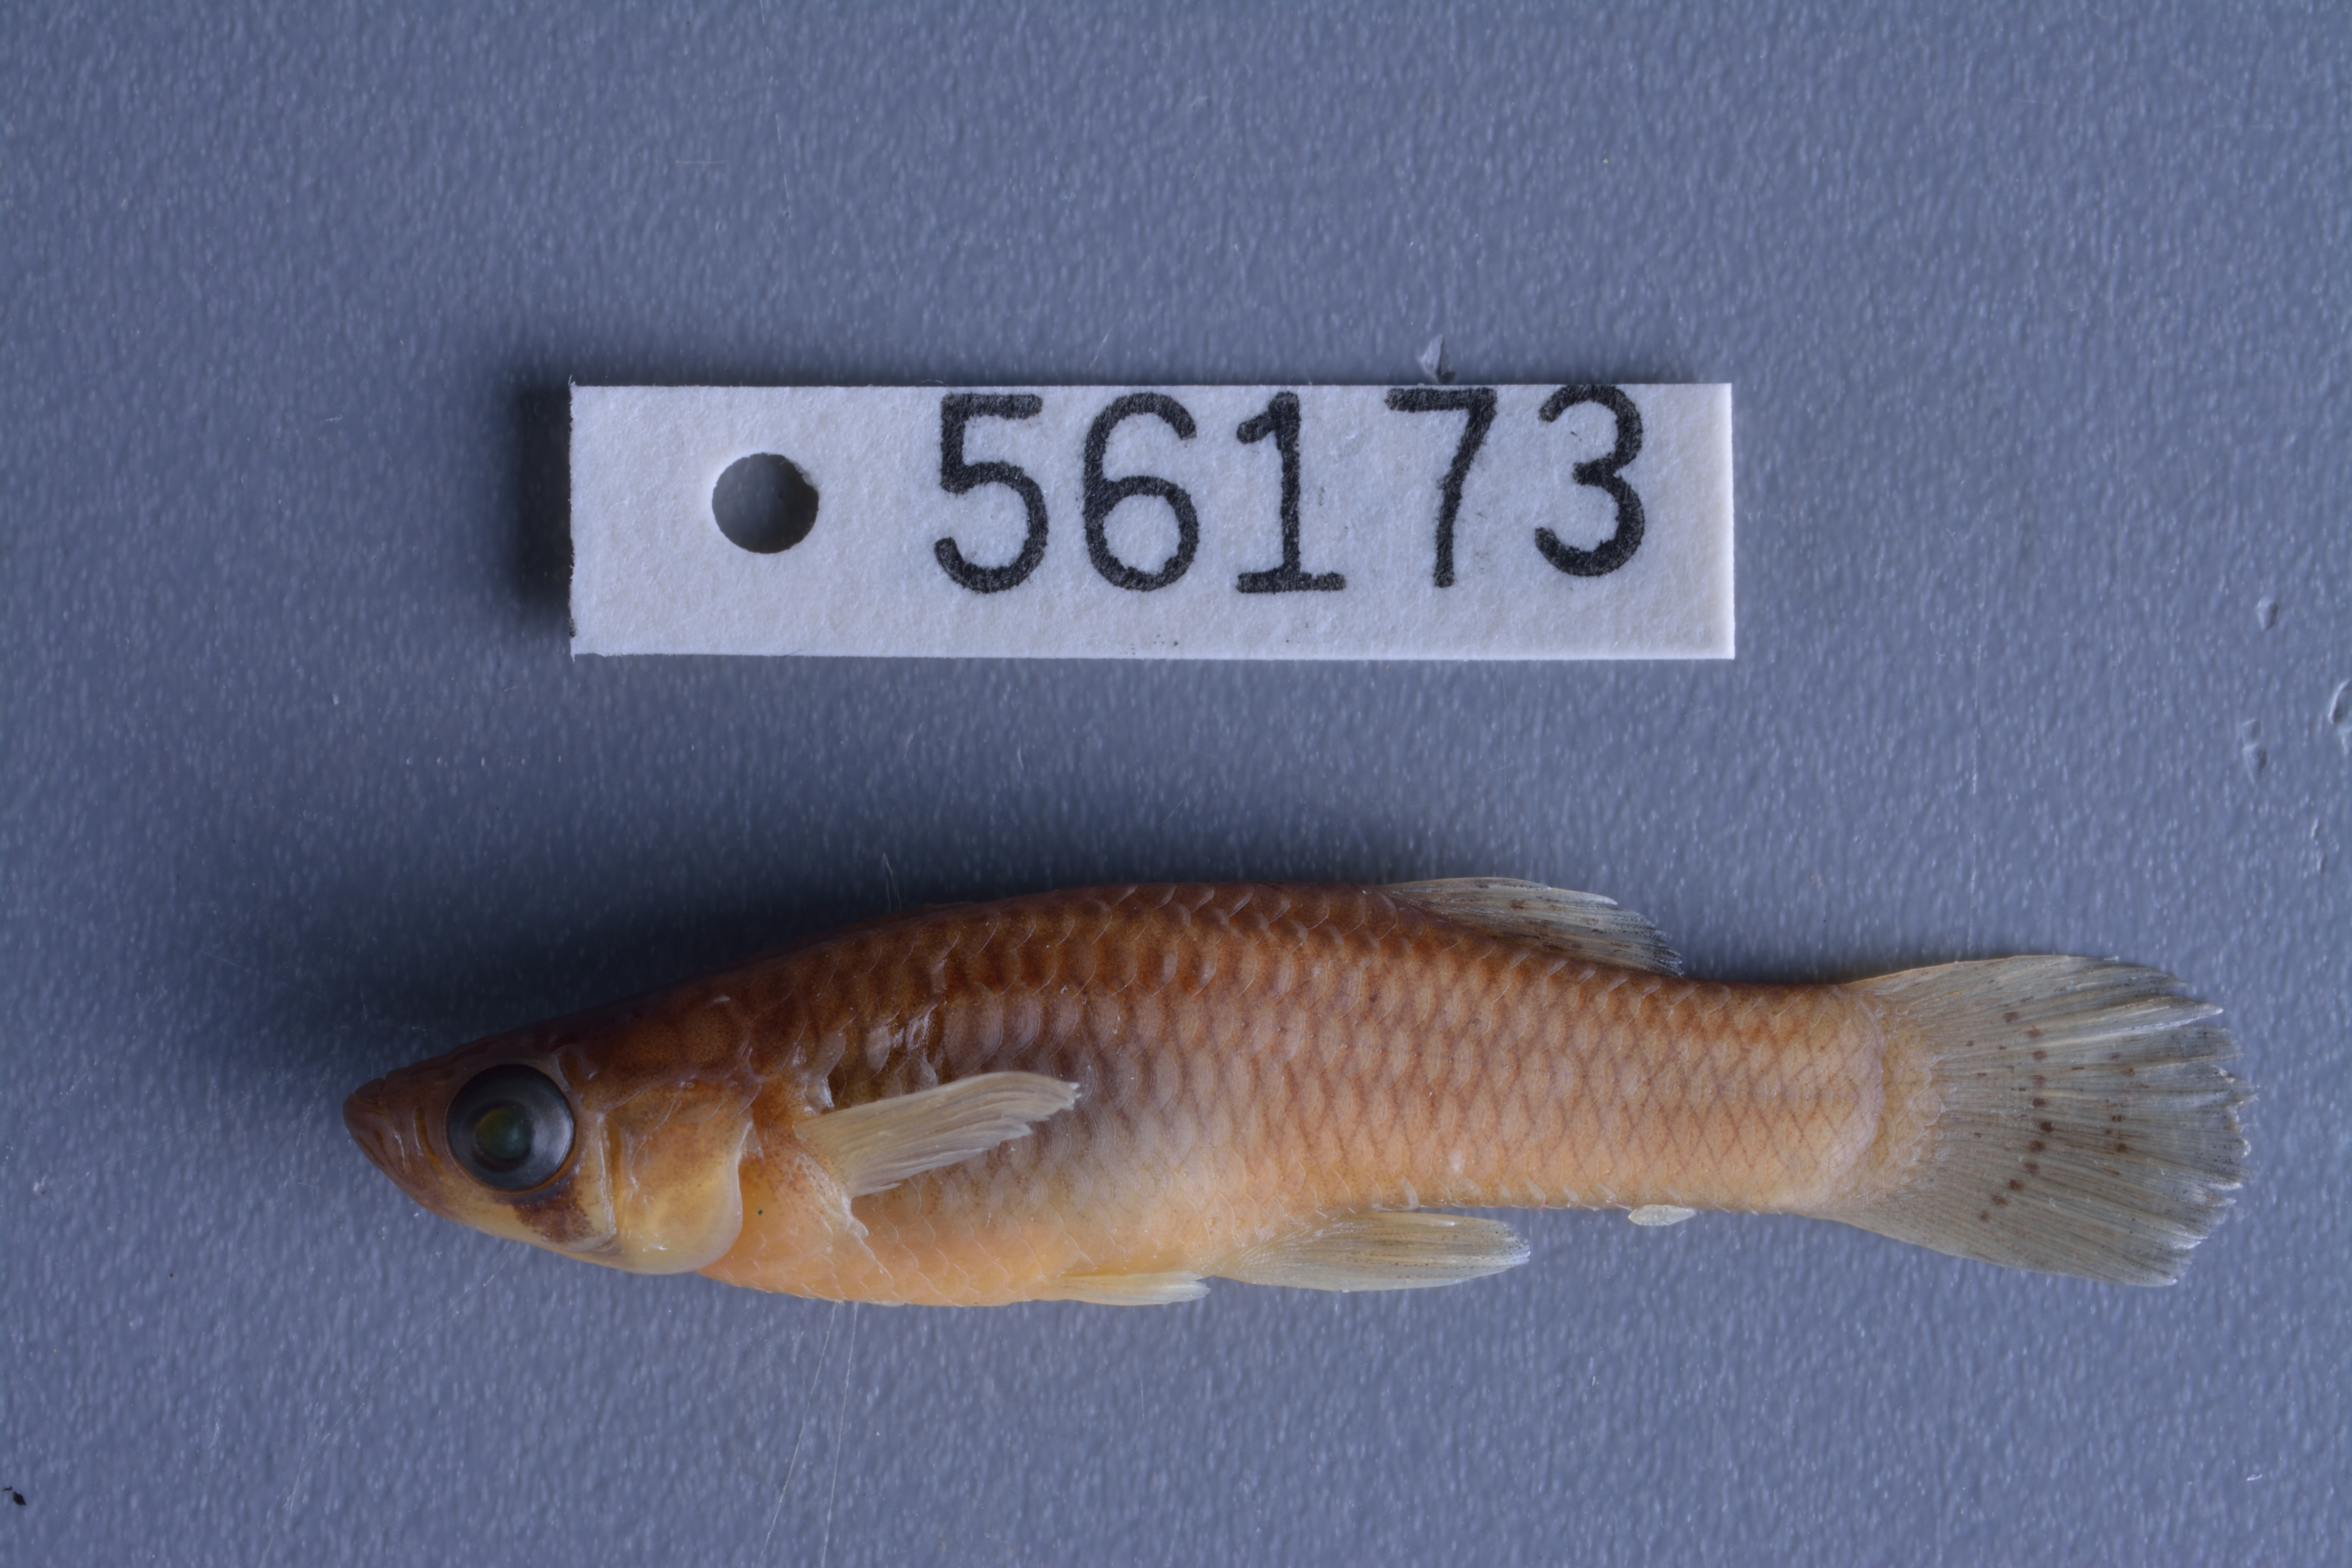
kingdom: Animalia
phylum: Chordata
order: Cyprinodontiformes
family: Poeciliidae
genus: Gambusia
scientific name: Gambusia affinis
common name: Mosquitofish
